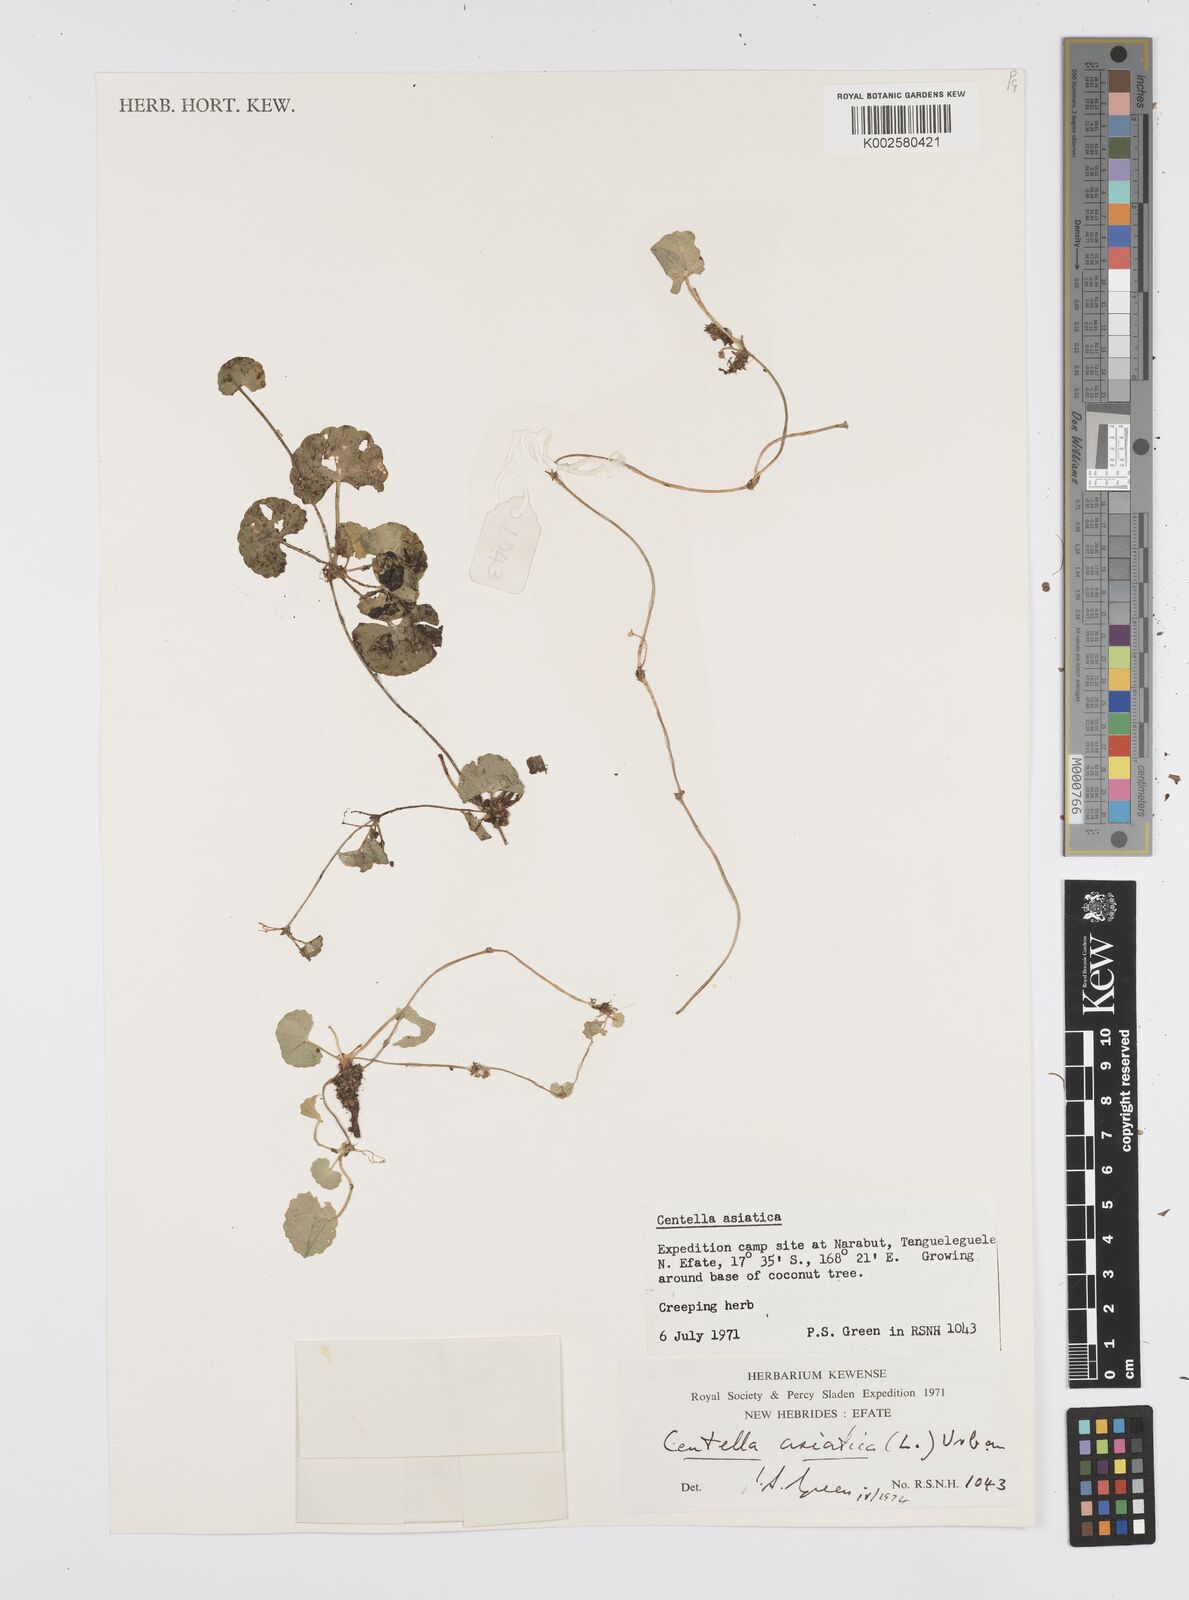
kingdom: Plantae
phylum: Tracheophyta
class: Magnoliopsida
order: Apiales
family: Apiaceae
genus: Centella
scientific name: Centella asiatica
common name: Spadeleaf
